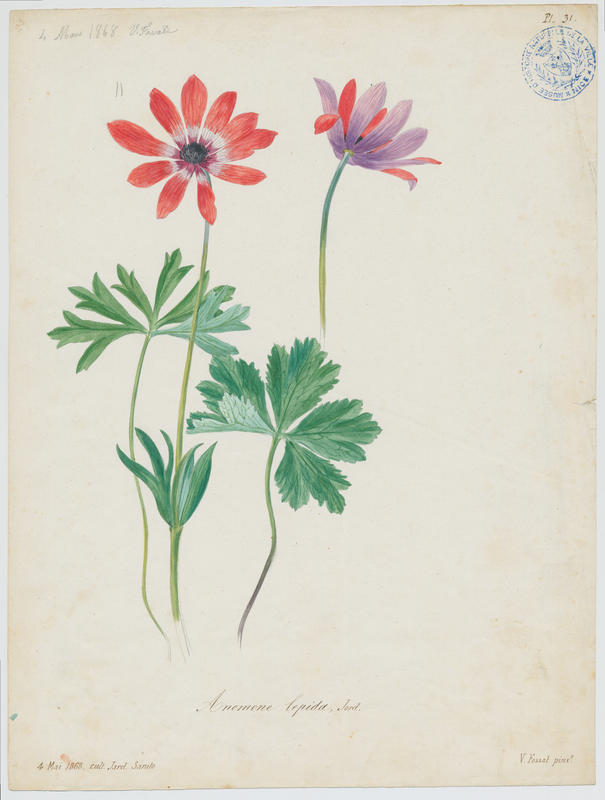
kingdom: Plantae
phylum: Tracheophyta
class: Magnoliopsida
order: Ranunculales
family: Ranunculaceae
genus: Anemone
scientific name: Anemone hortensis
